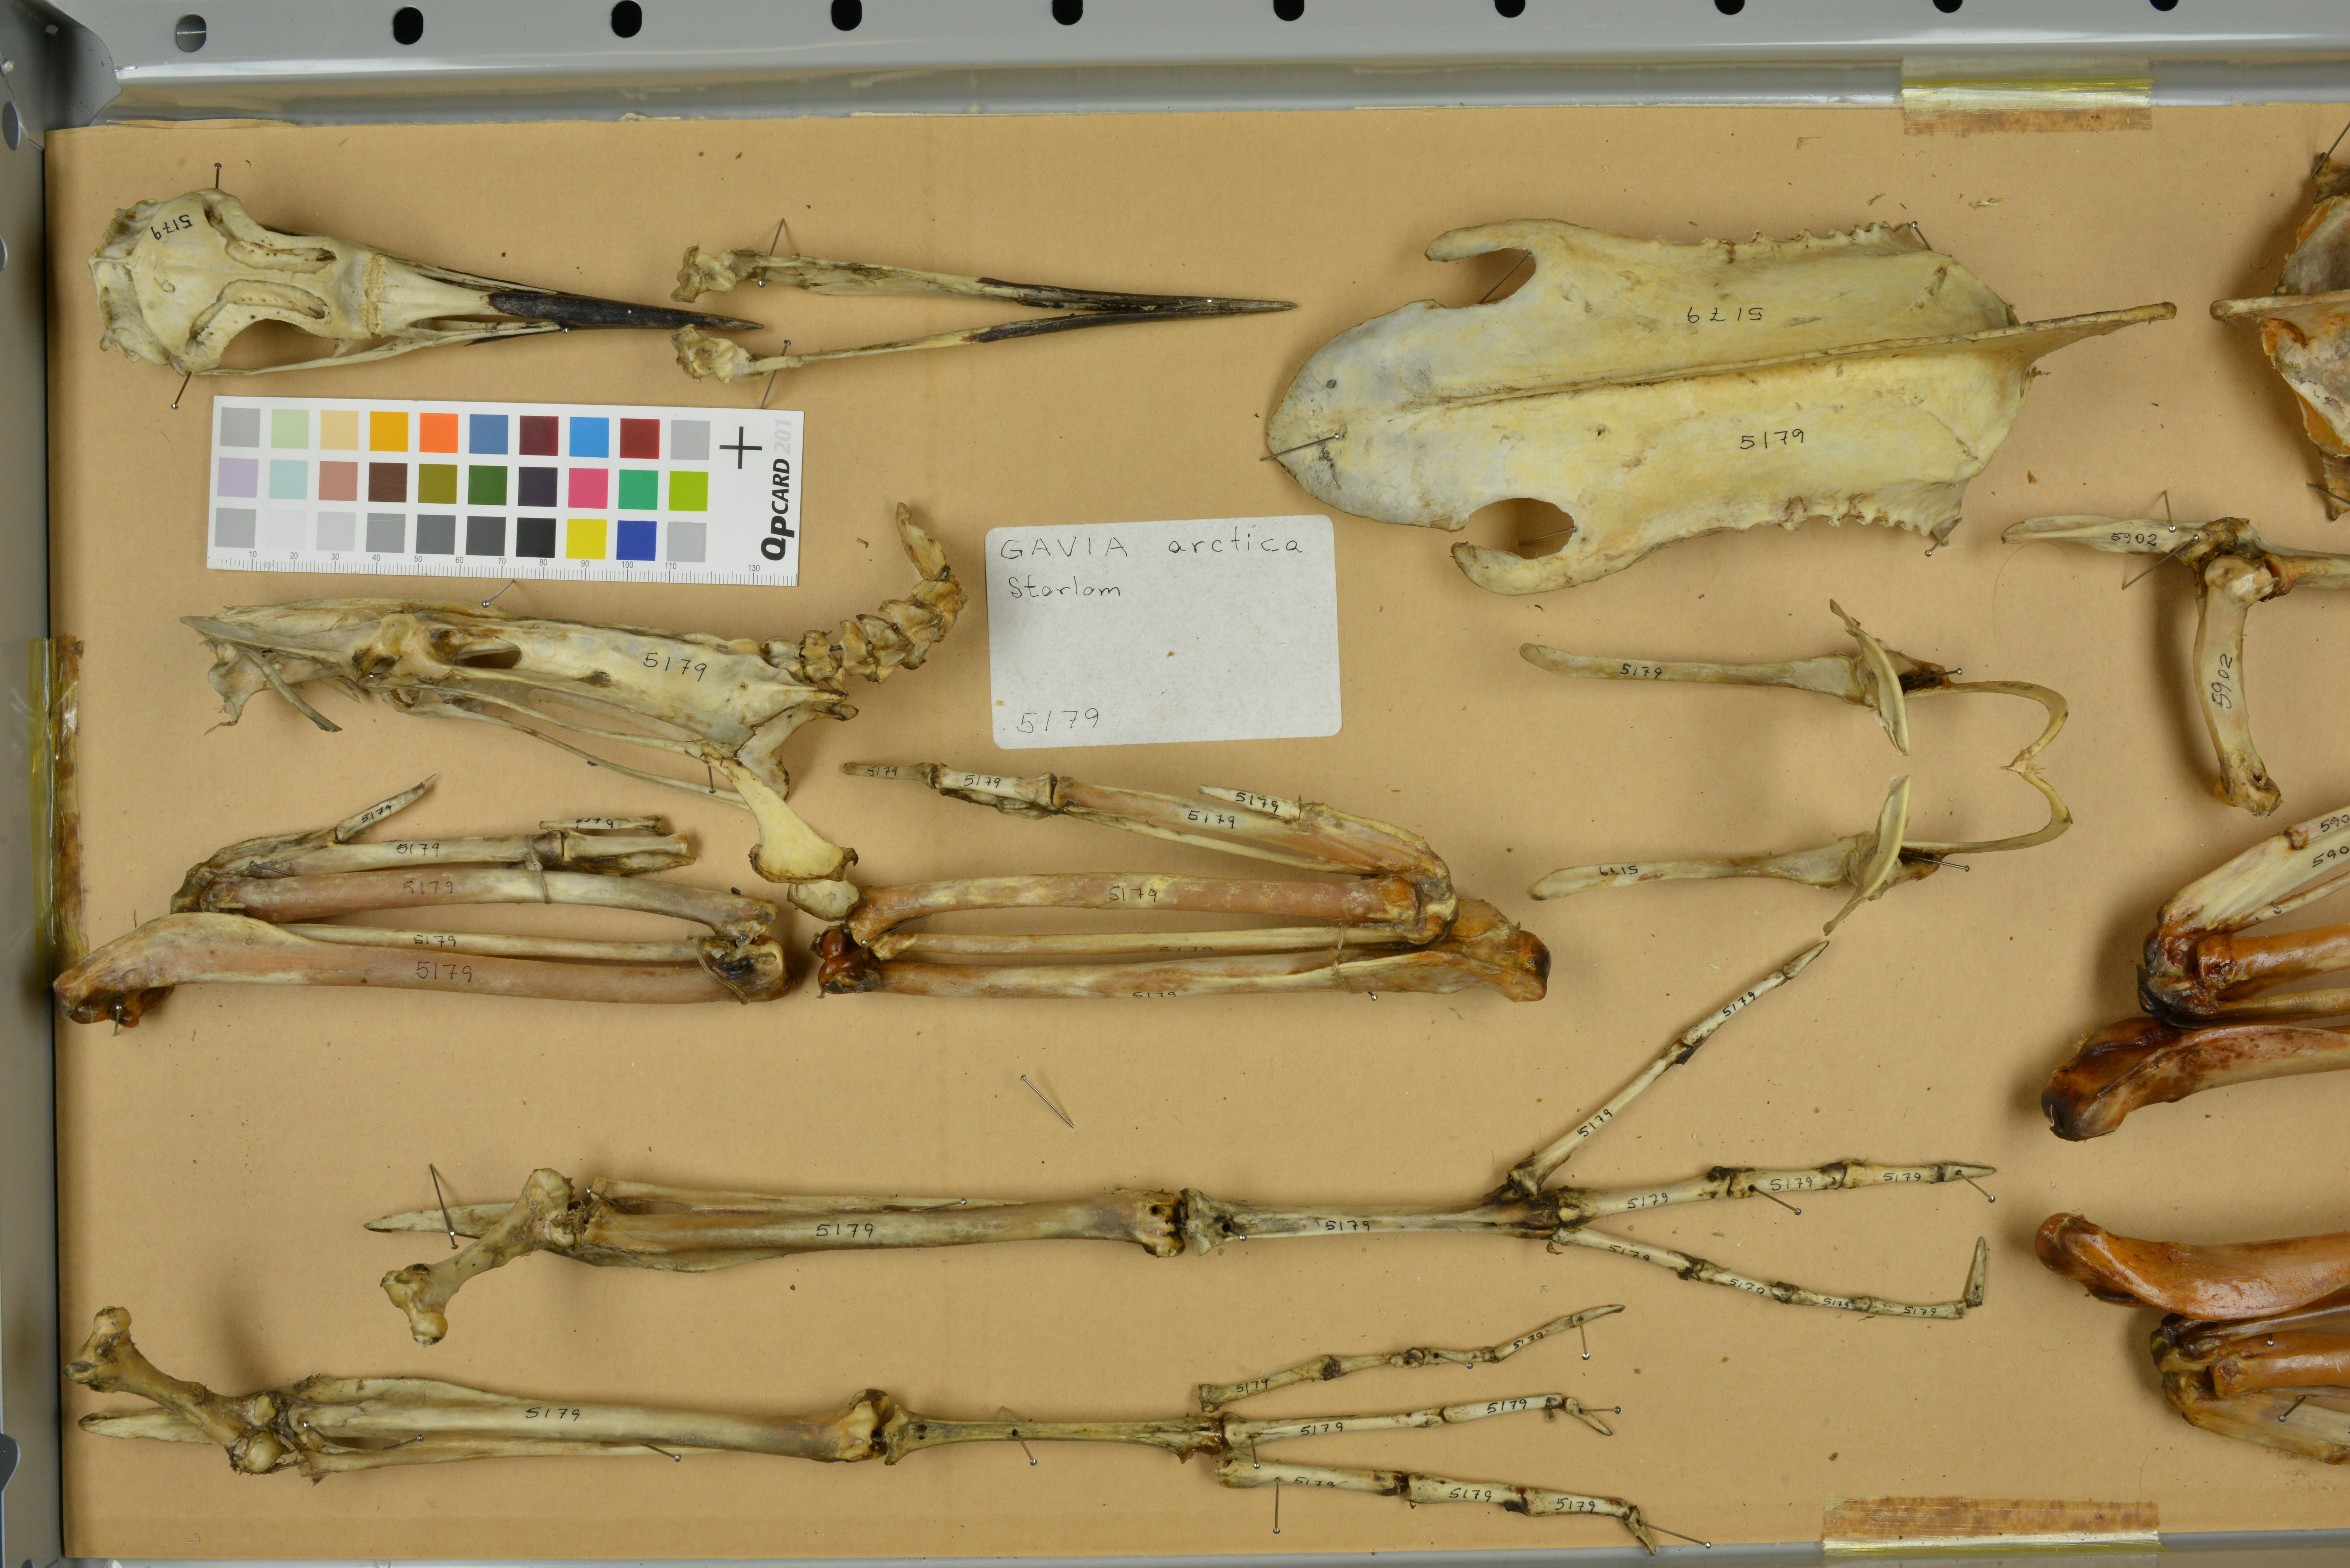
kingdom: Animalia
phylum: Chordata
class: Aves
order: Gaviiformes
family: Gaviidae
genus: Gavia
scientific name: Gavia arctica
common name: Black-throated loon
